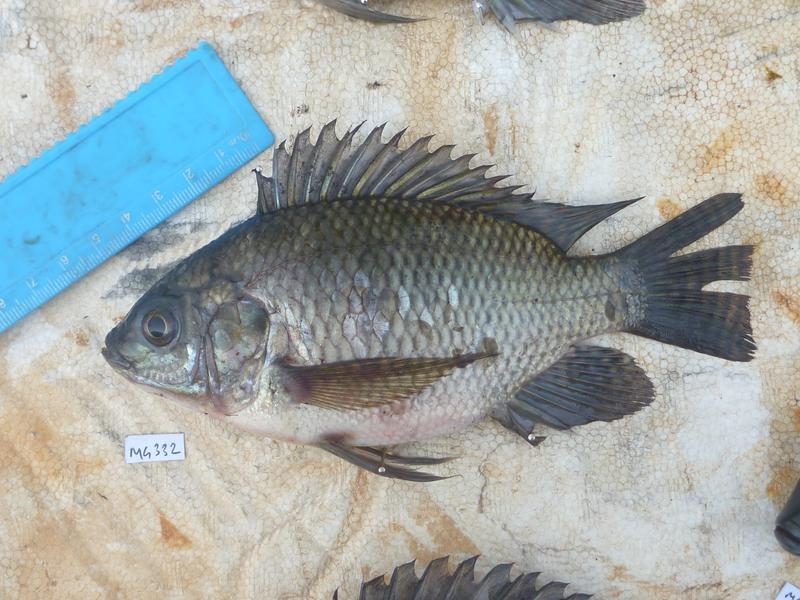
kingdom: Animalia
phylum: Chordata
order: Perciformes
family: Cichlidae
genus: Oreochromis
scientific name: Oreochromis niloticus
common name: Nile tilapia
